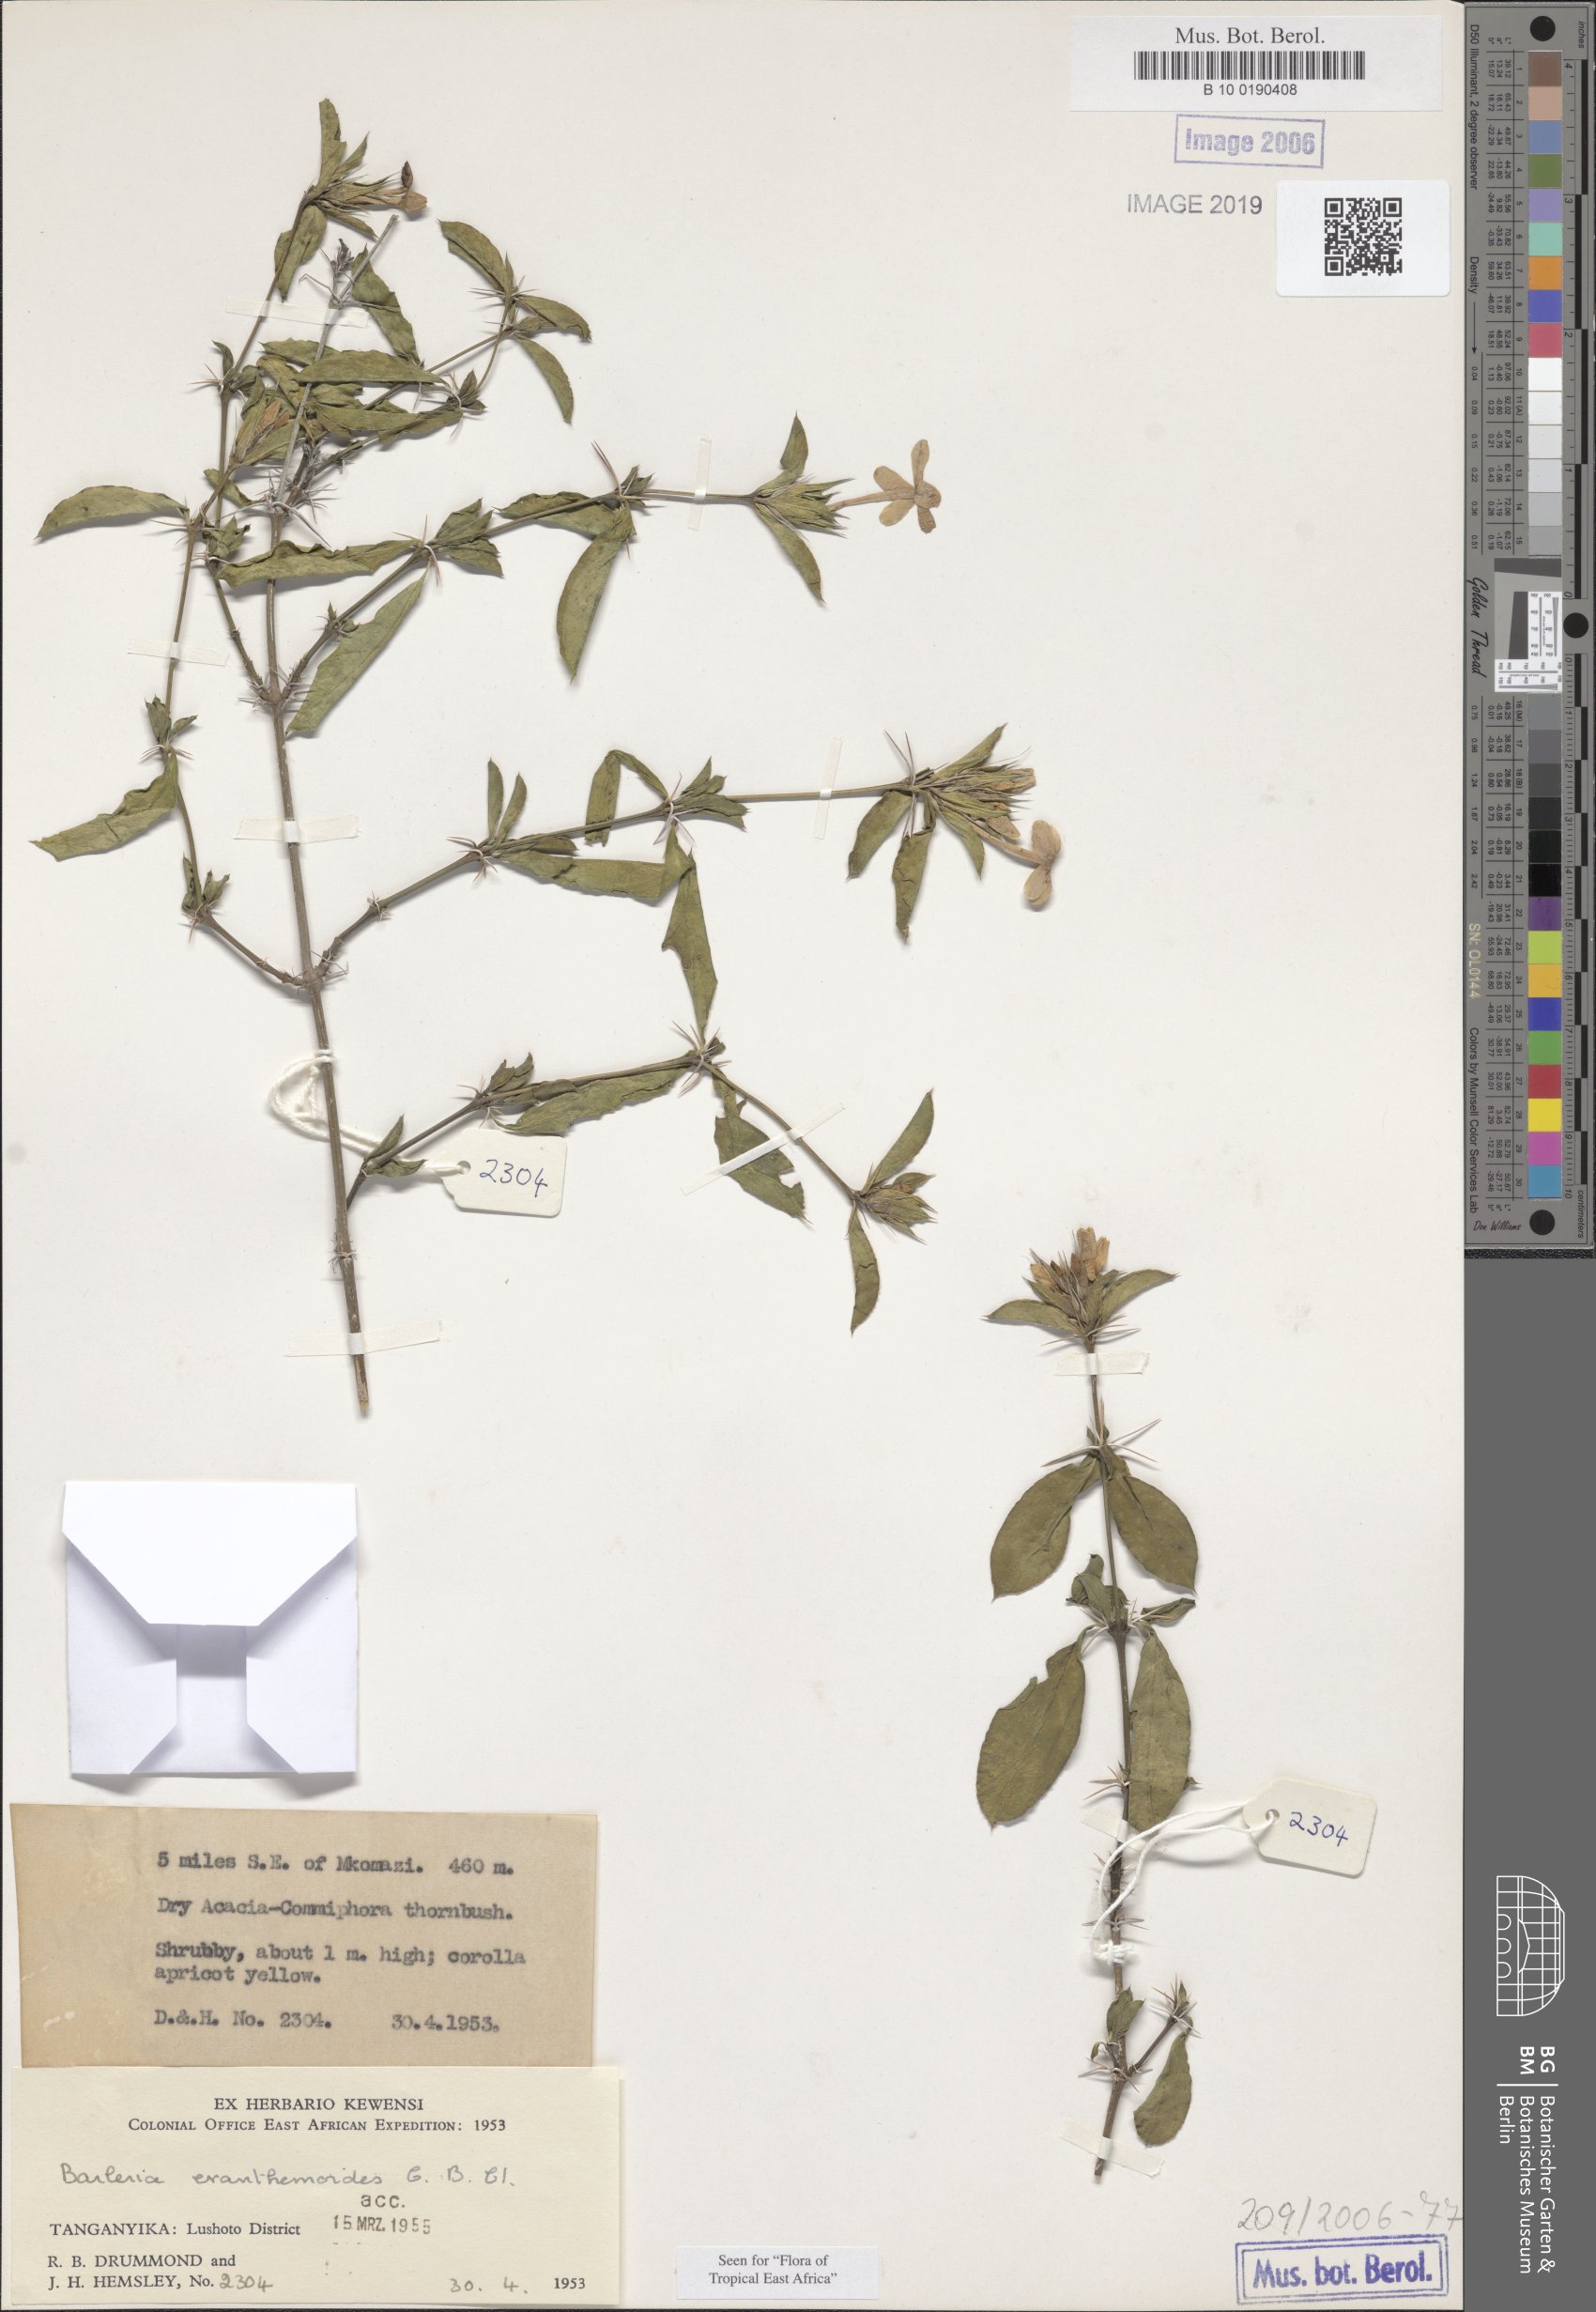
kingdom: Plantae
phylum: Tracheophyta
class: Magnoliopsida
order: Lamiales
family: Acanthaceae
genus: Barleria
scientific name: Barleria eranthemoides
